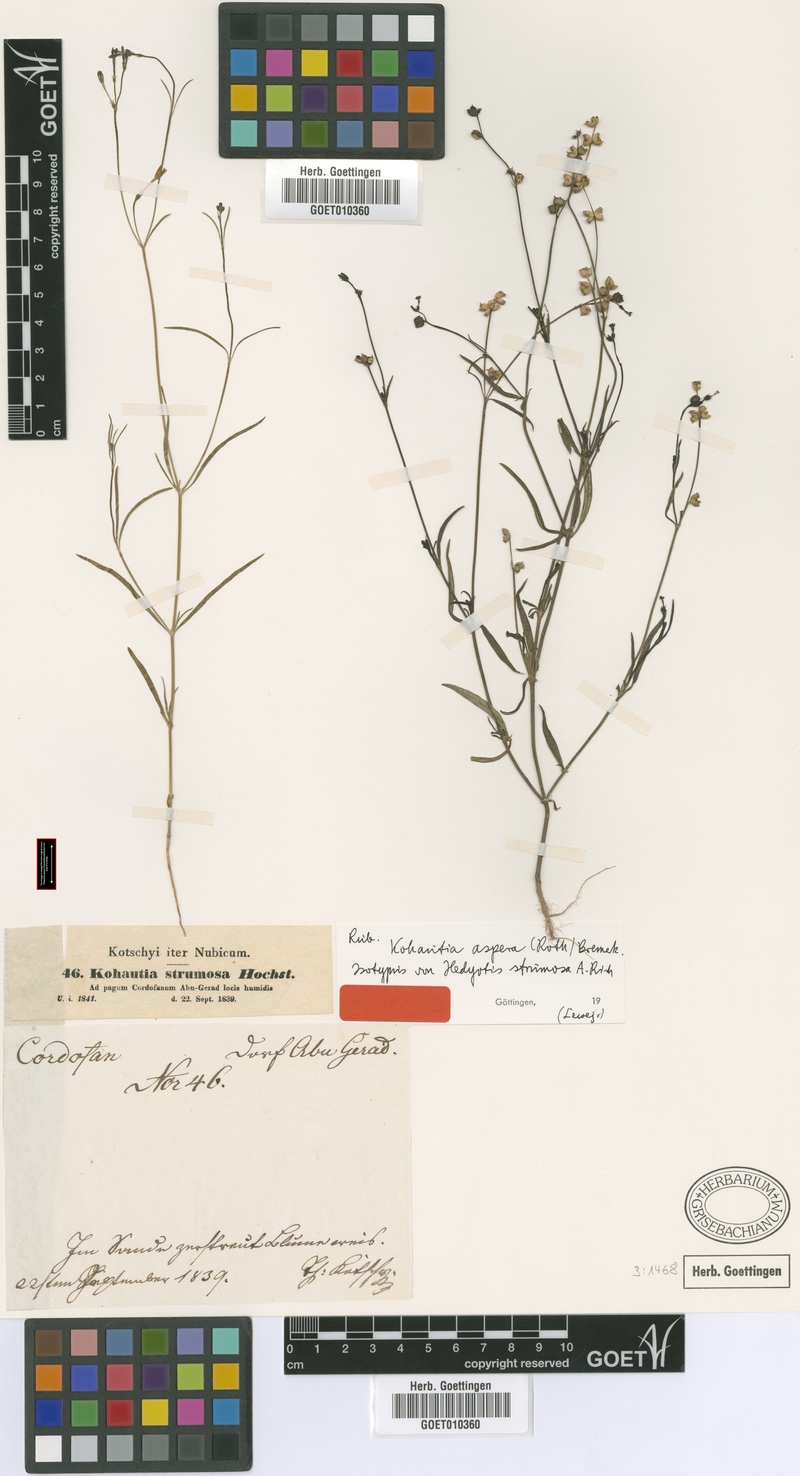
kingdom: Plantae
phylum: Tracheophyta
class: Magnoliopsida
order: Gentianales
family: Rubiaceae
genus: Kohautia
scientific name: Kohautia aspera
